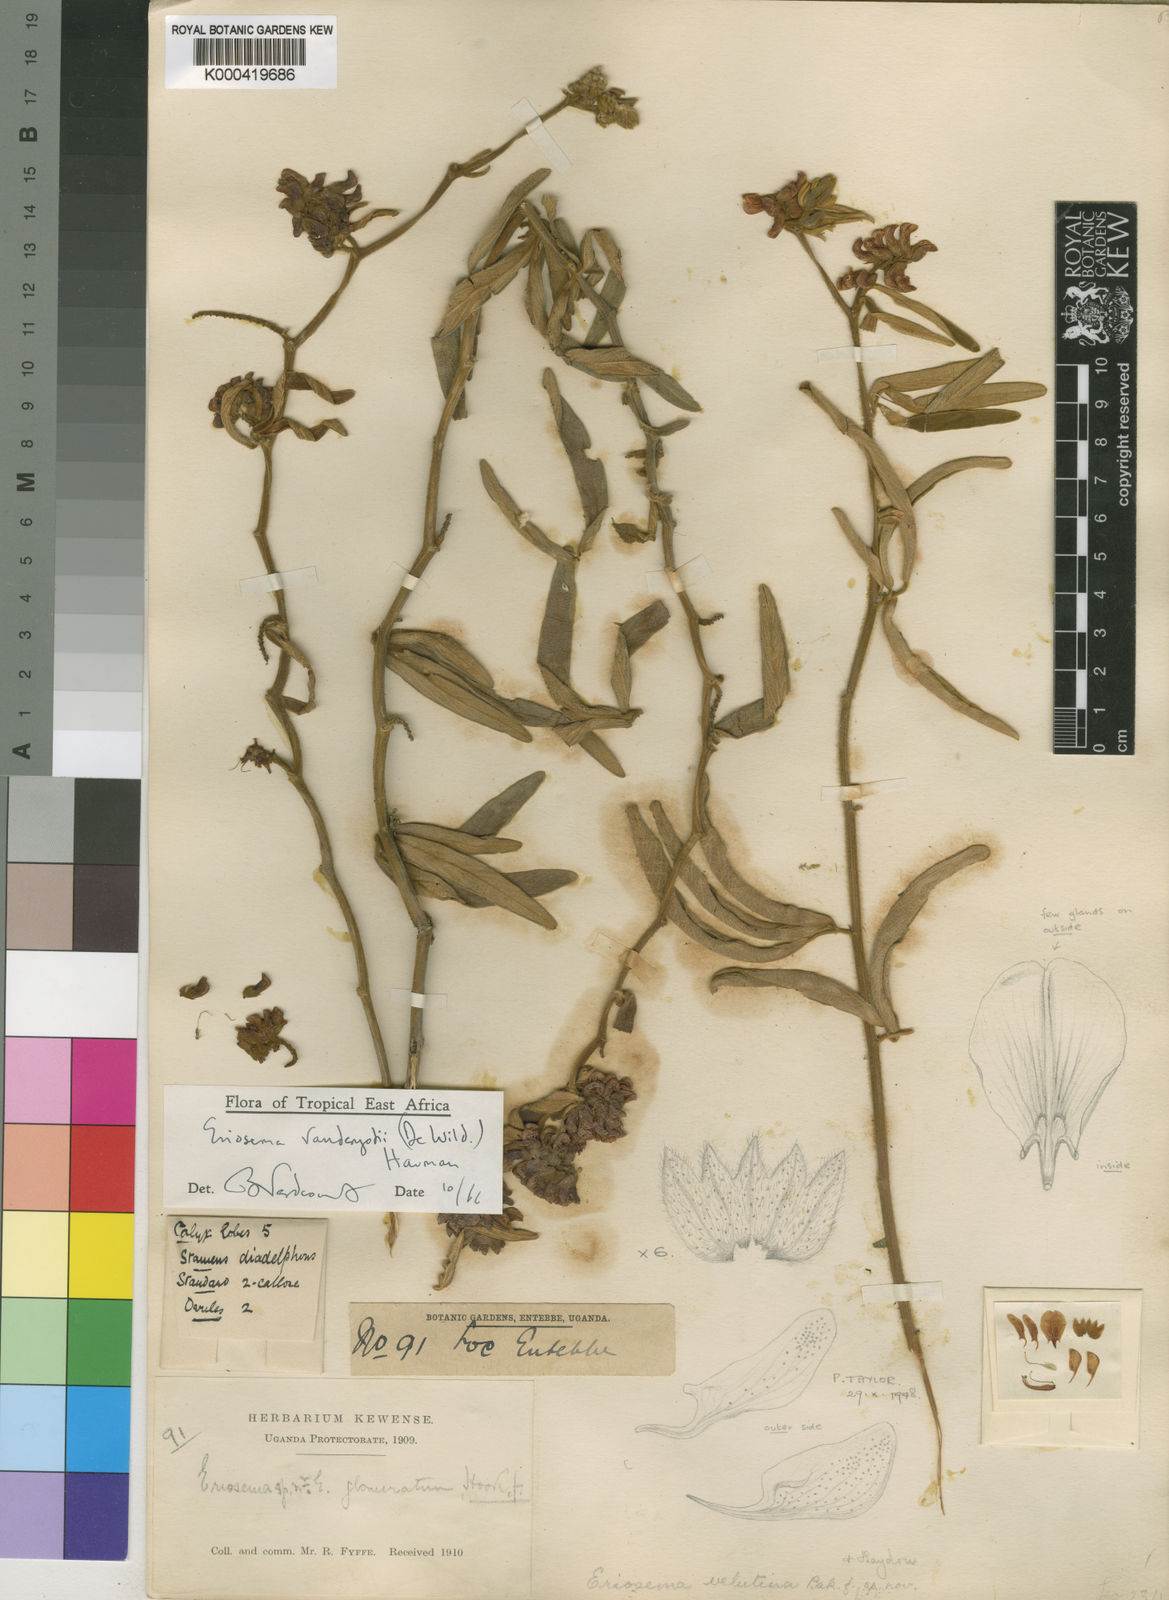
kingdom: Plantae
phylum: Tracheophyta
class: Magnoliopsida
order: Fabales
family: Fabaceae
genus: Eriosema
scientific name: Eriosema vanderystii
